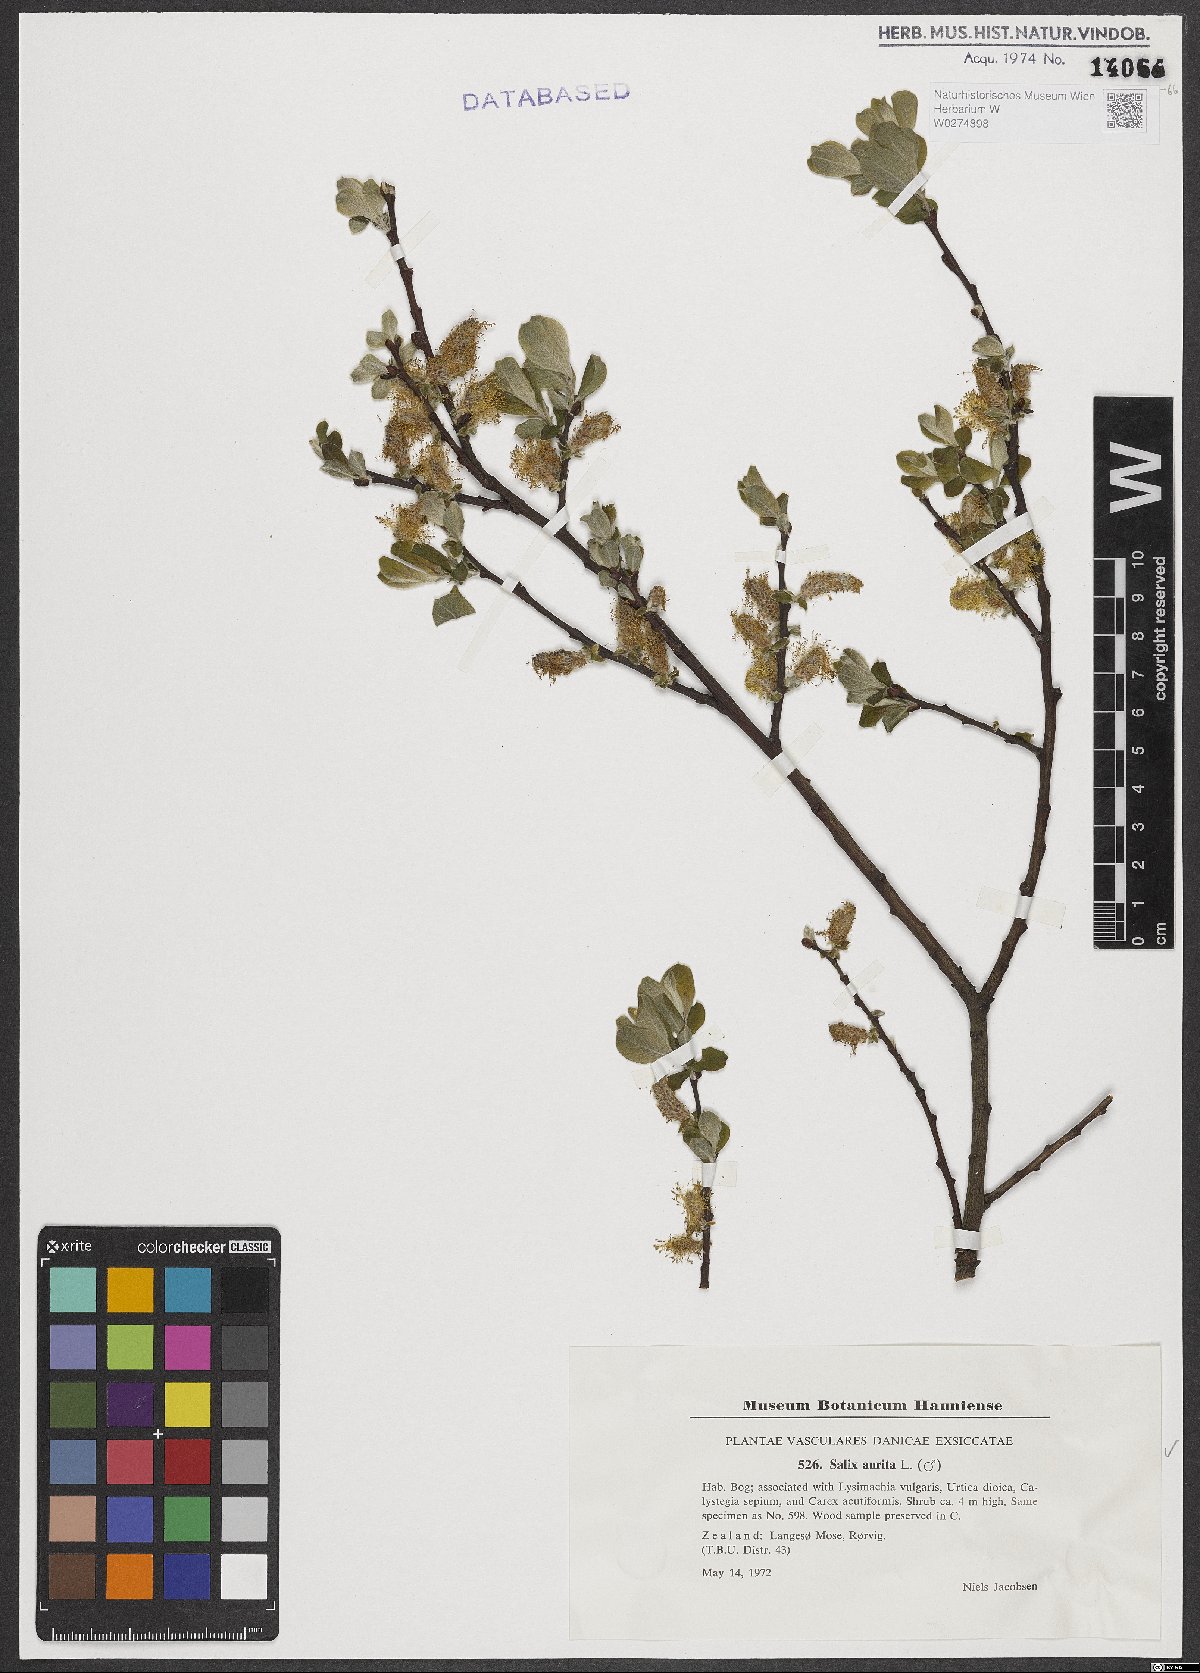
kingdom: Plantae
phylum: Tracheophyta
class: Magnoliopsida
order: Malpighiales
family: Salicaceae
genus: Salix
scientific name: Salix aurita
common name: Eared willow
